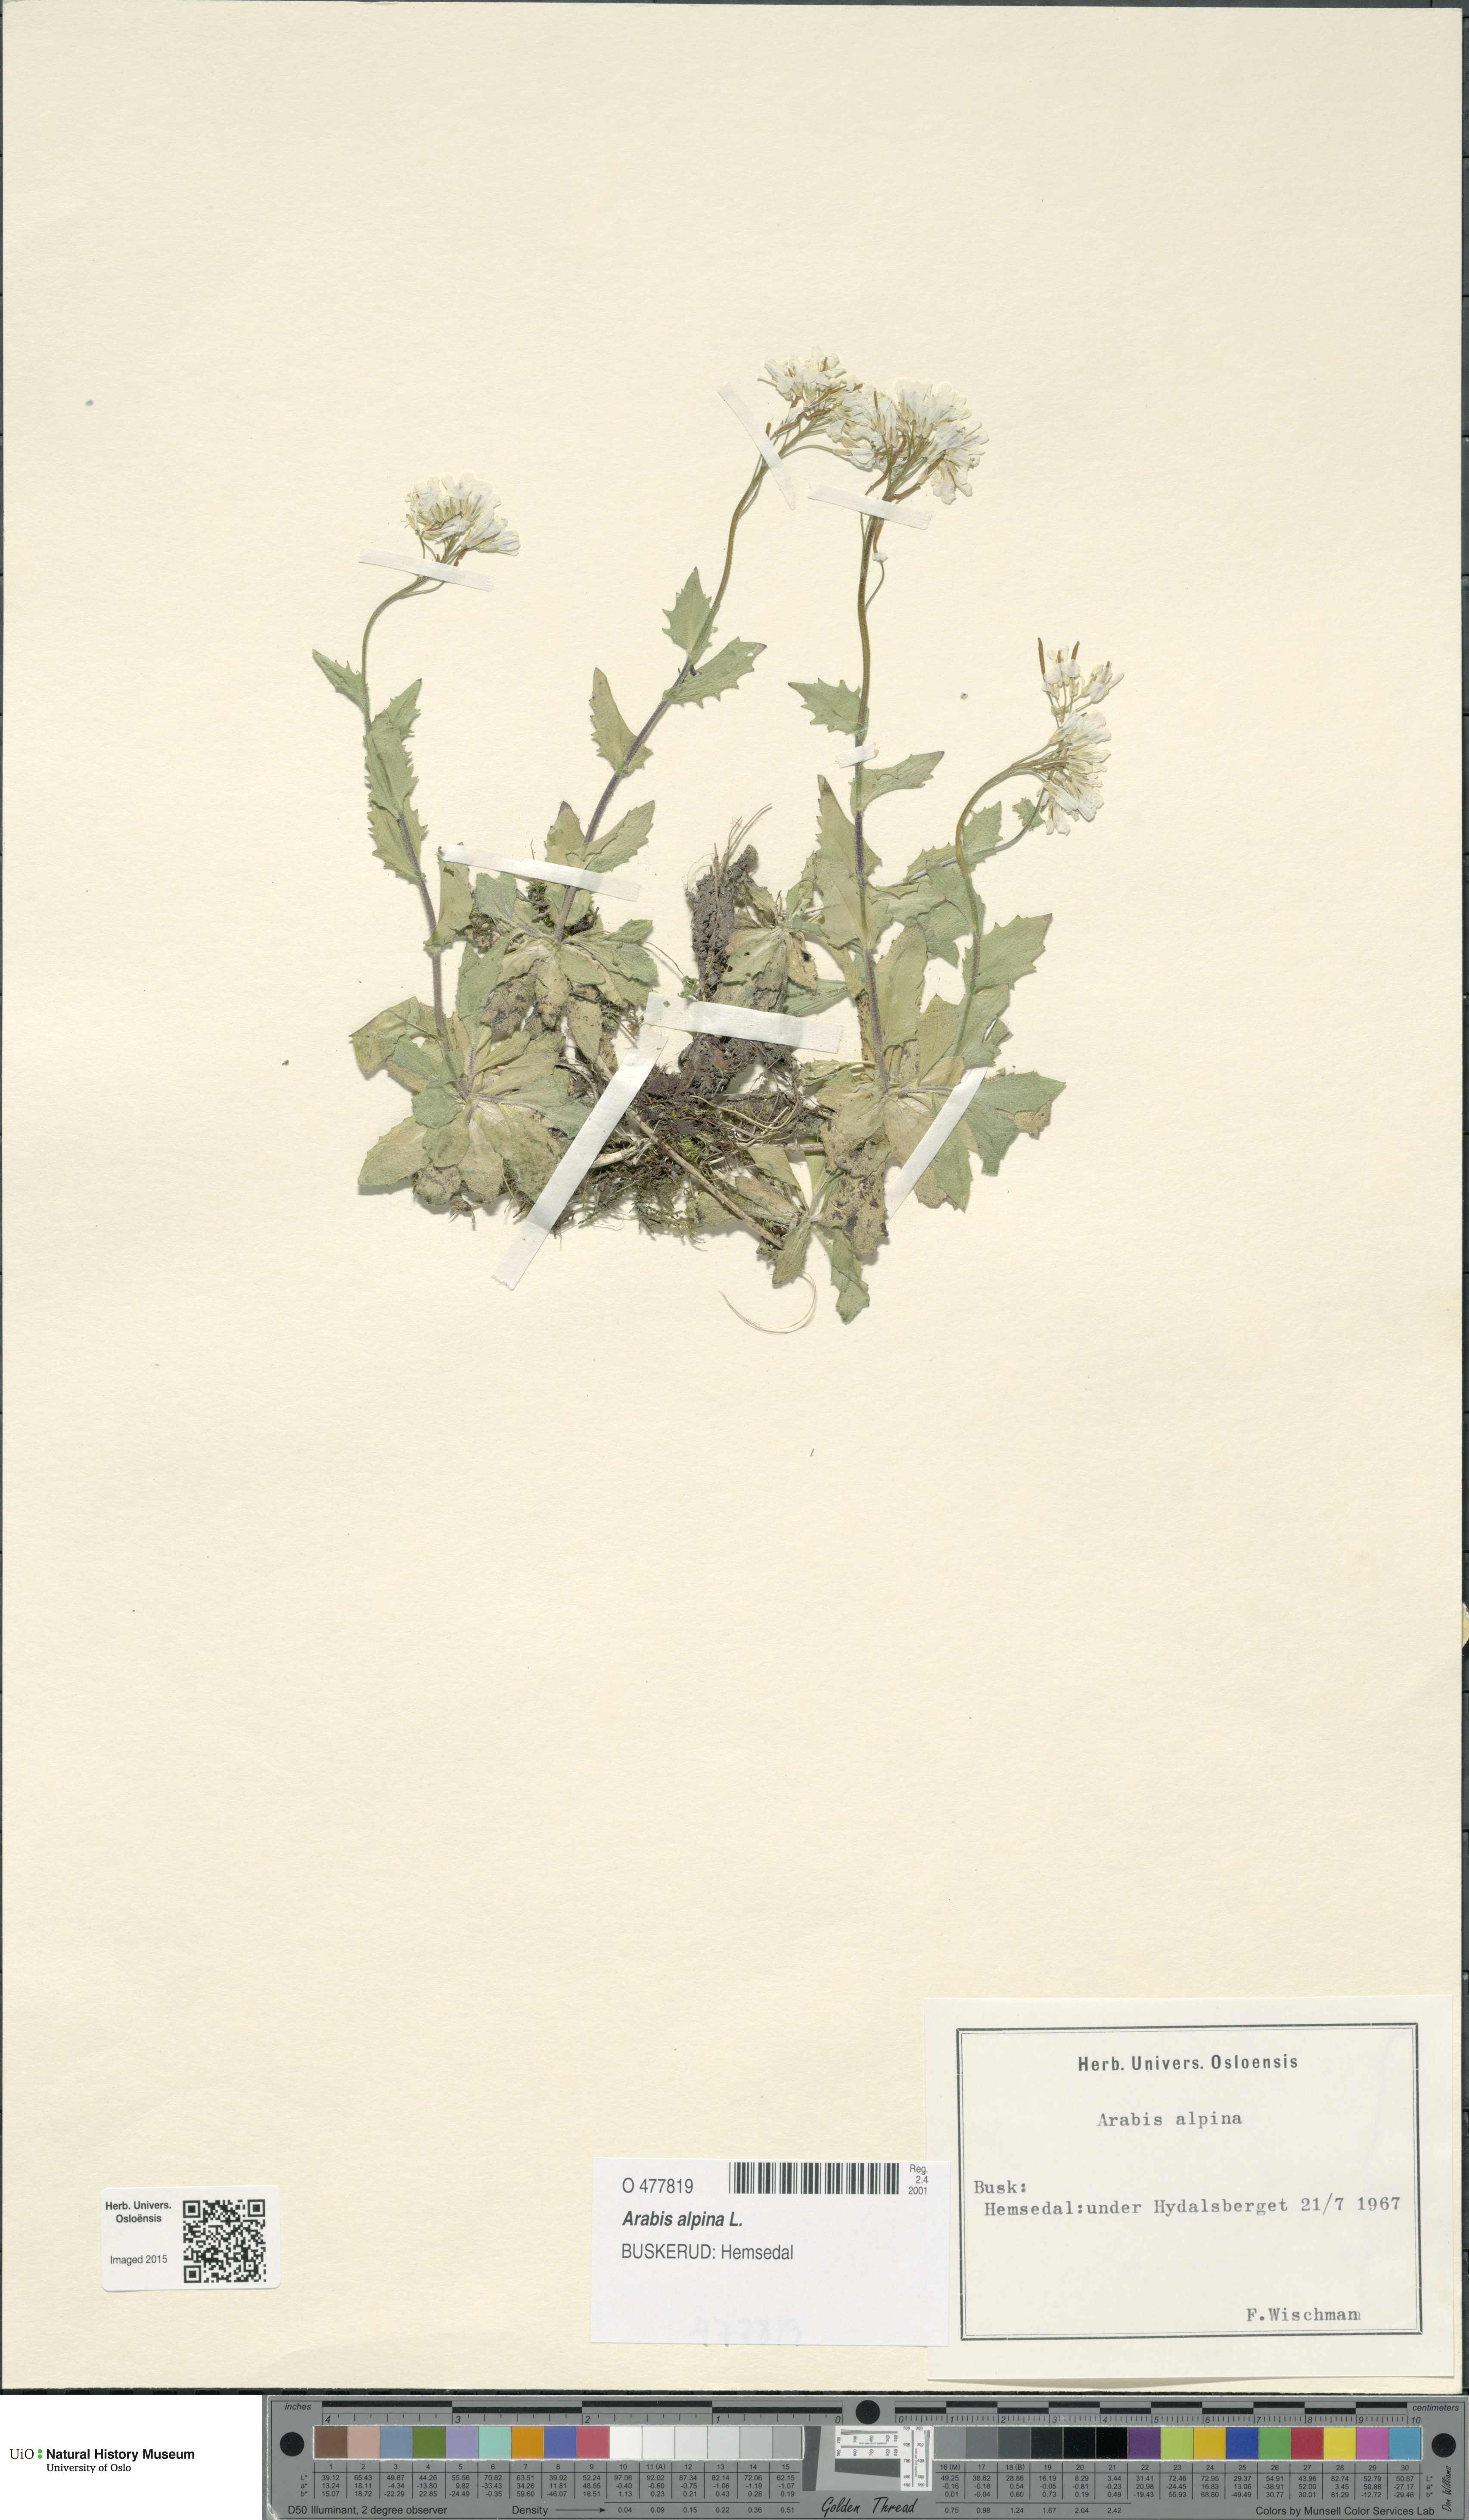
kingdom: Plantae
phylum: Tracheophyta
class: Magnoliopsida
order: Brassicales
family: Brassicaceae
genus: Arabis
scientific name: Arabis alpina
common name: Alpine rock-cress
